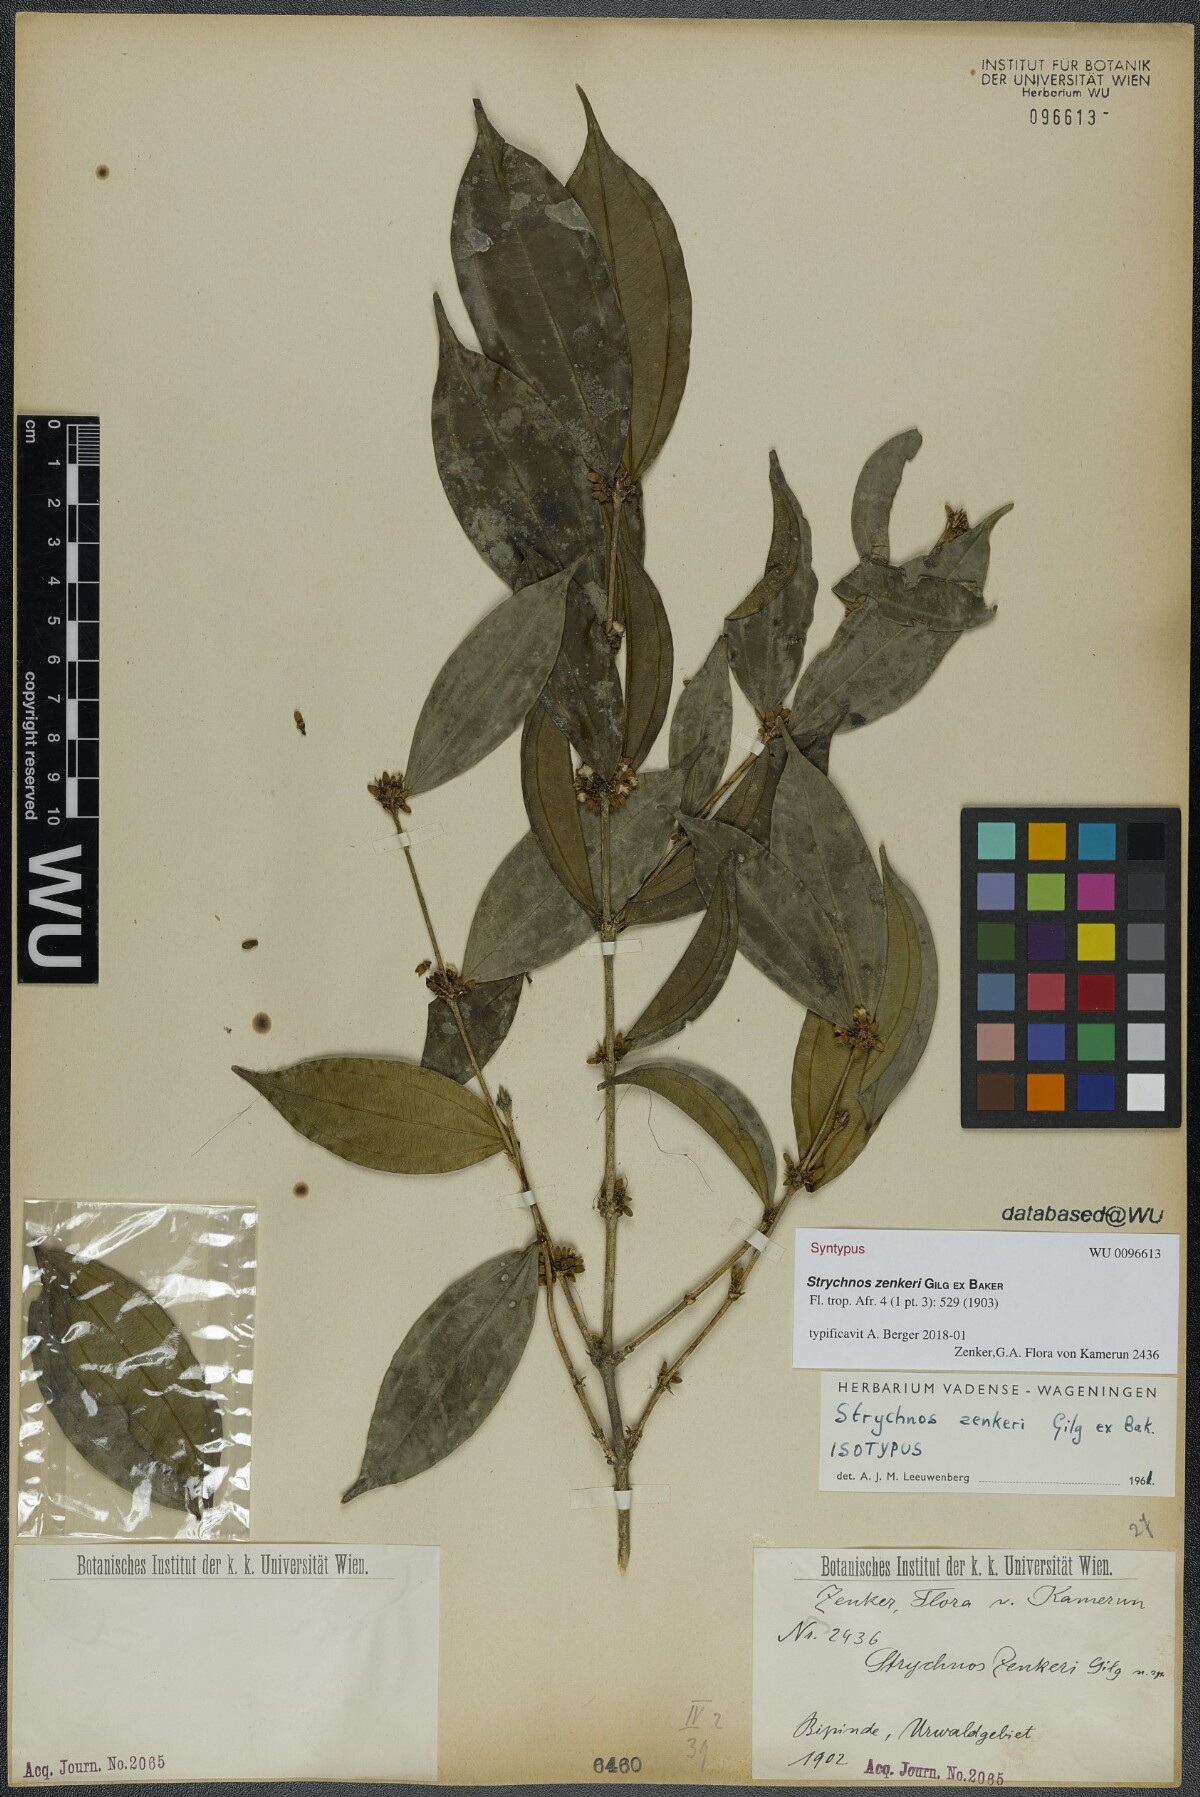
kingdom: Plantae
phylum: Tracheophyta
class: Magnoliopsida
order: Gentianales
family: Loganiaceae
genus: Strychnos
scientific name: Strychnos zenkeri
